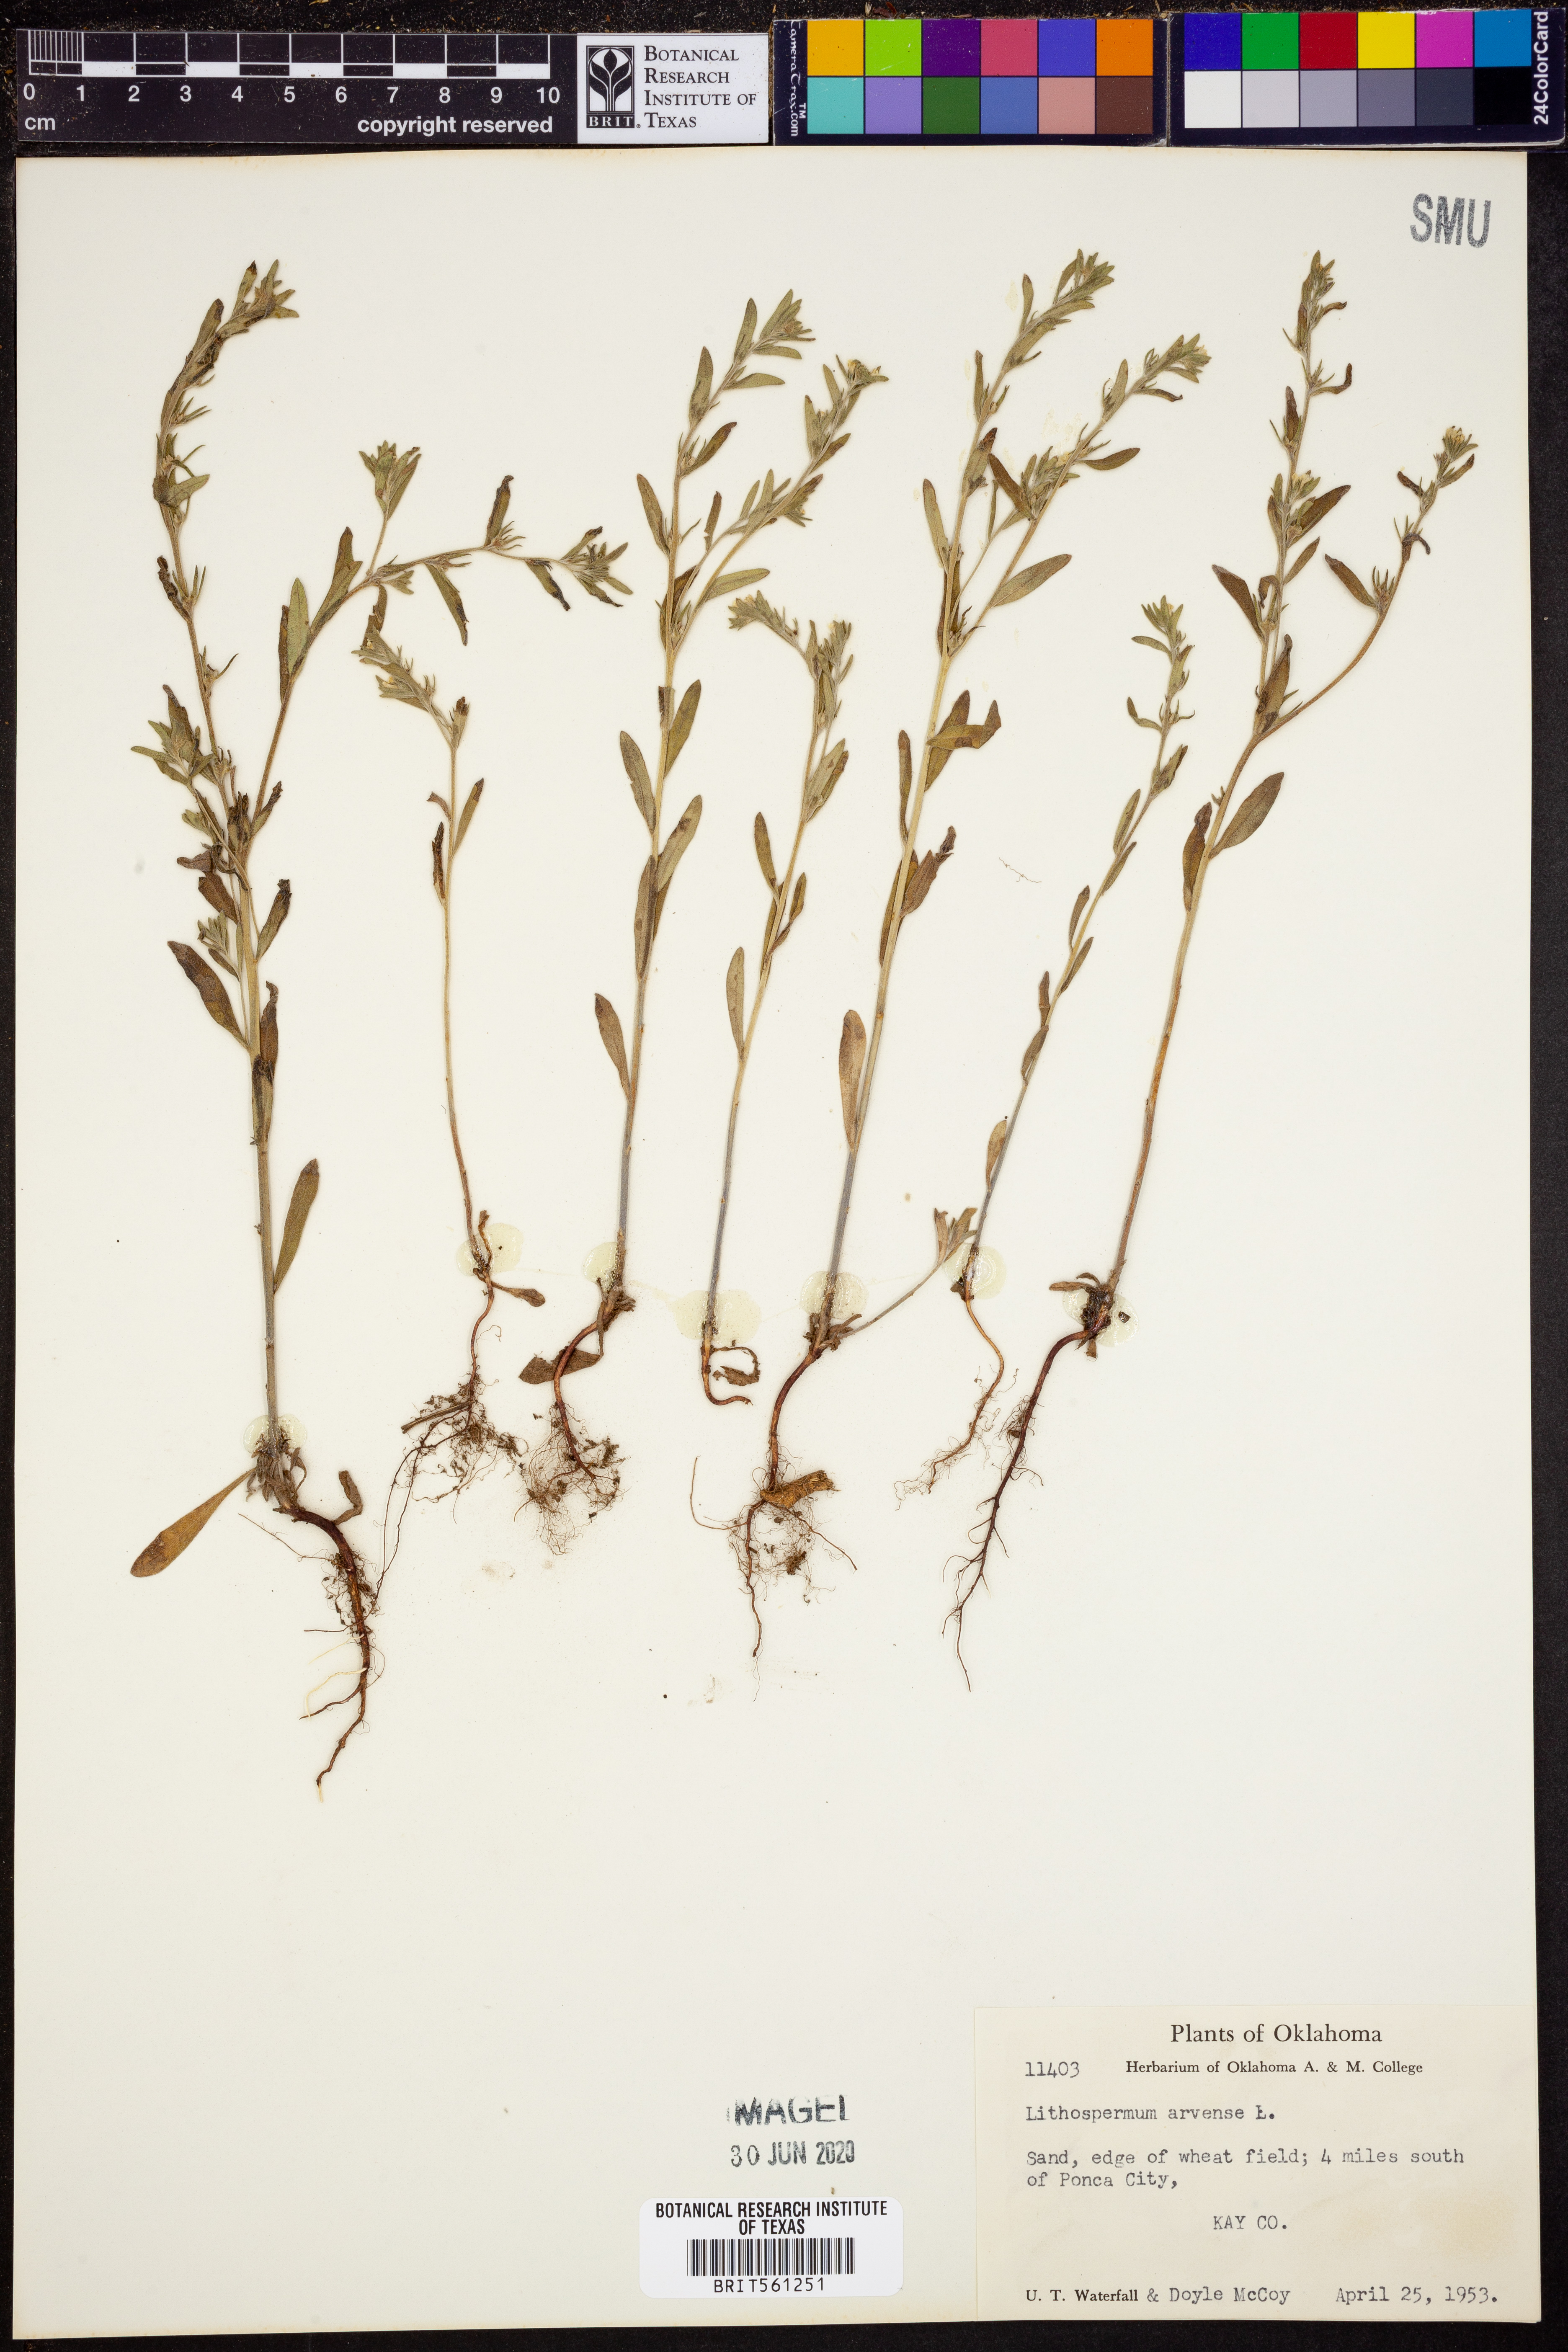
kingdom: Plantae
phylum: Tracheophyta
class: Magnoliopsida
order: Boraginales
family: Boraginaceae
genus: Lithospermum
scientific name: Lithospermum erythrorhizon
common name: Purple gromwell
